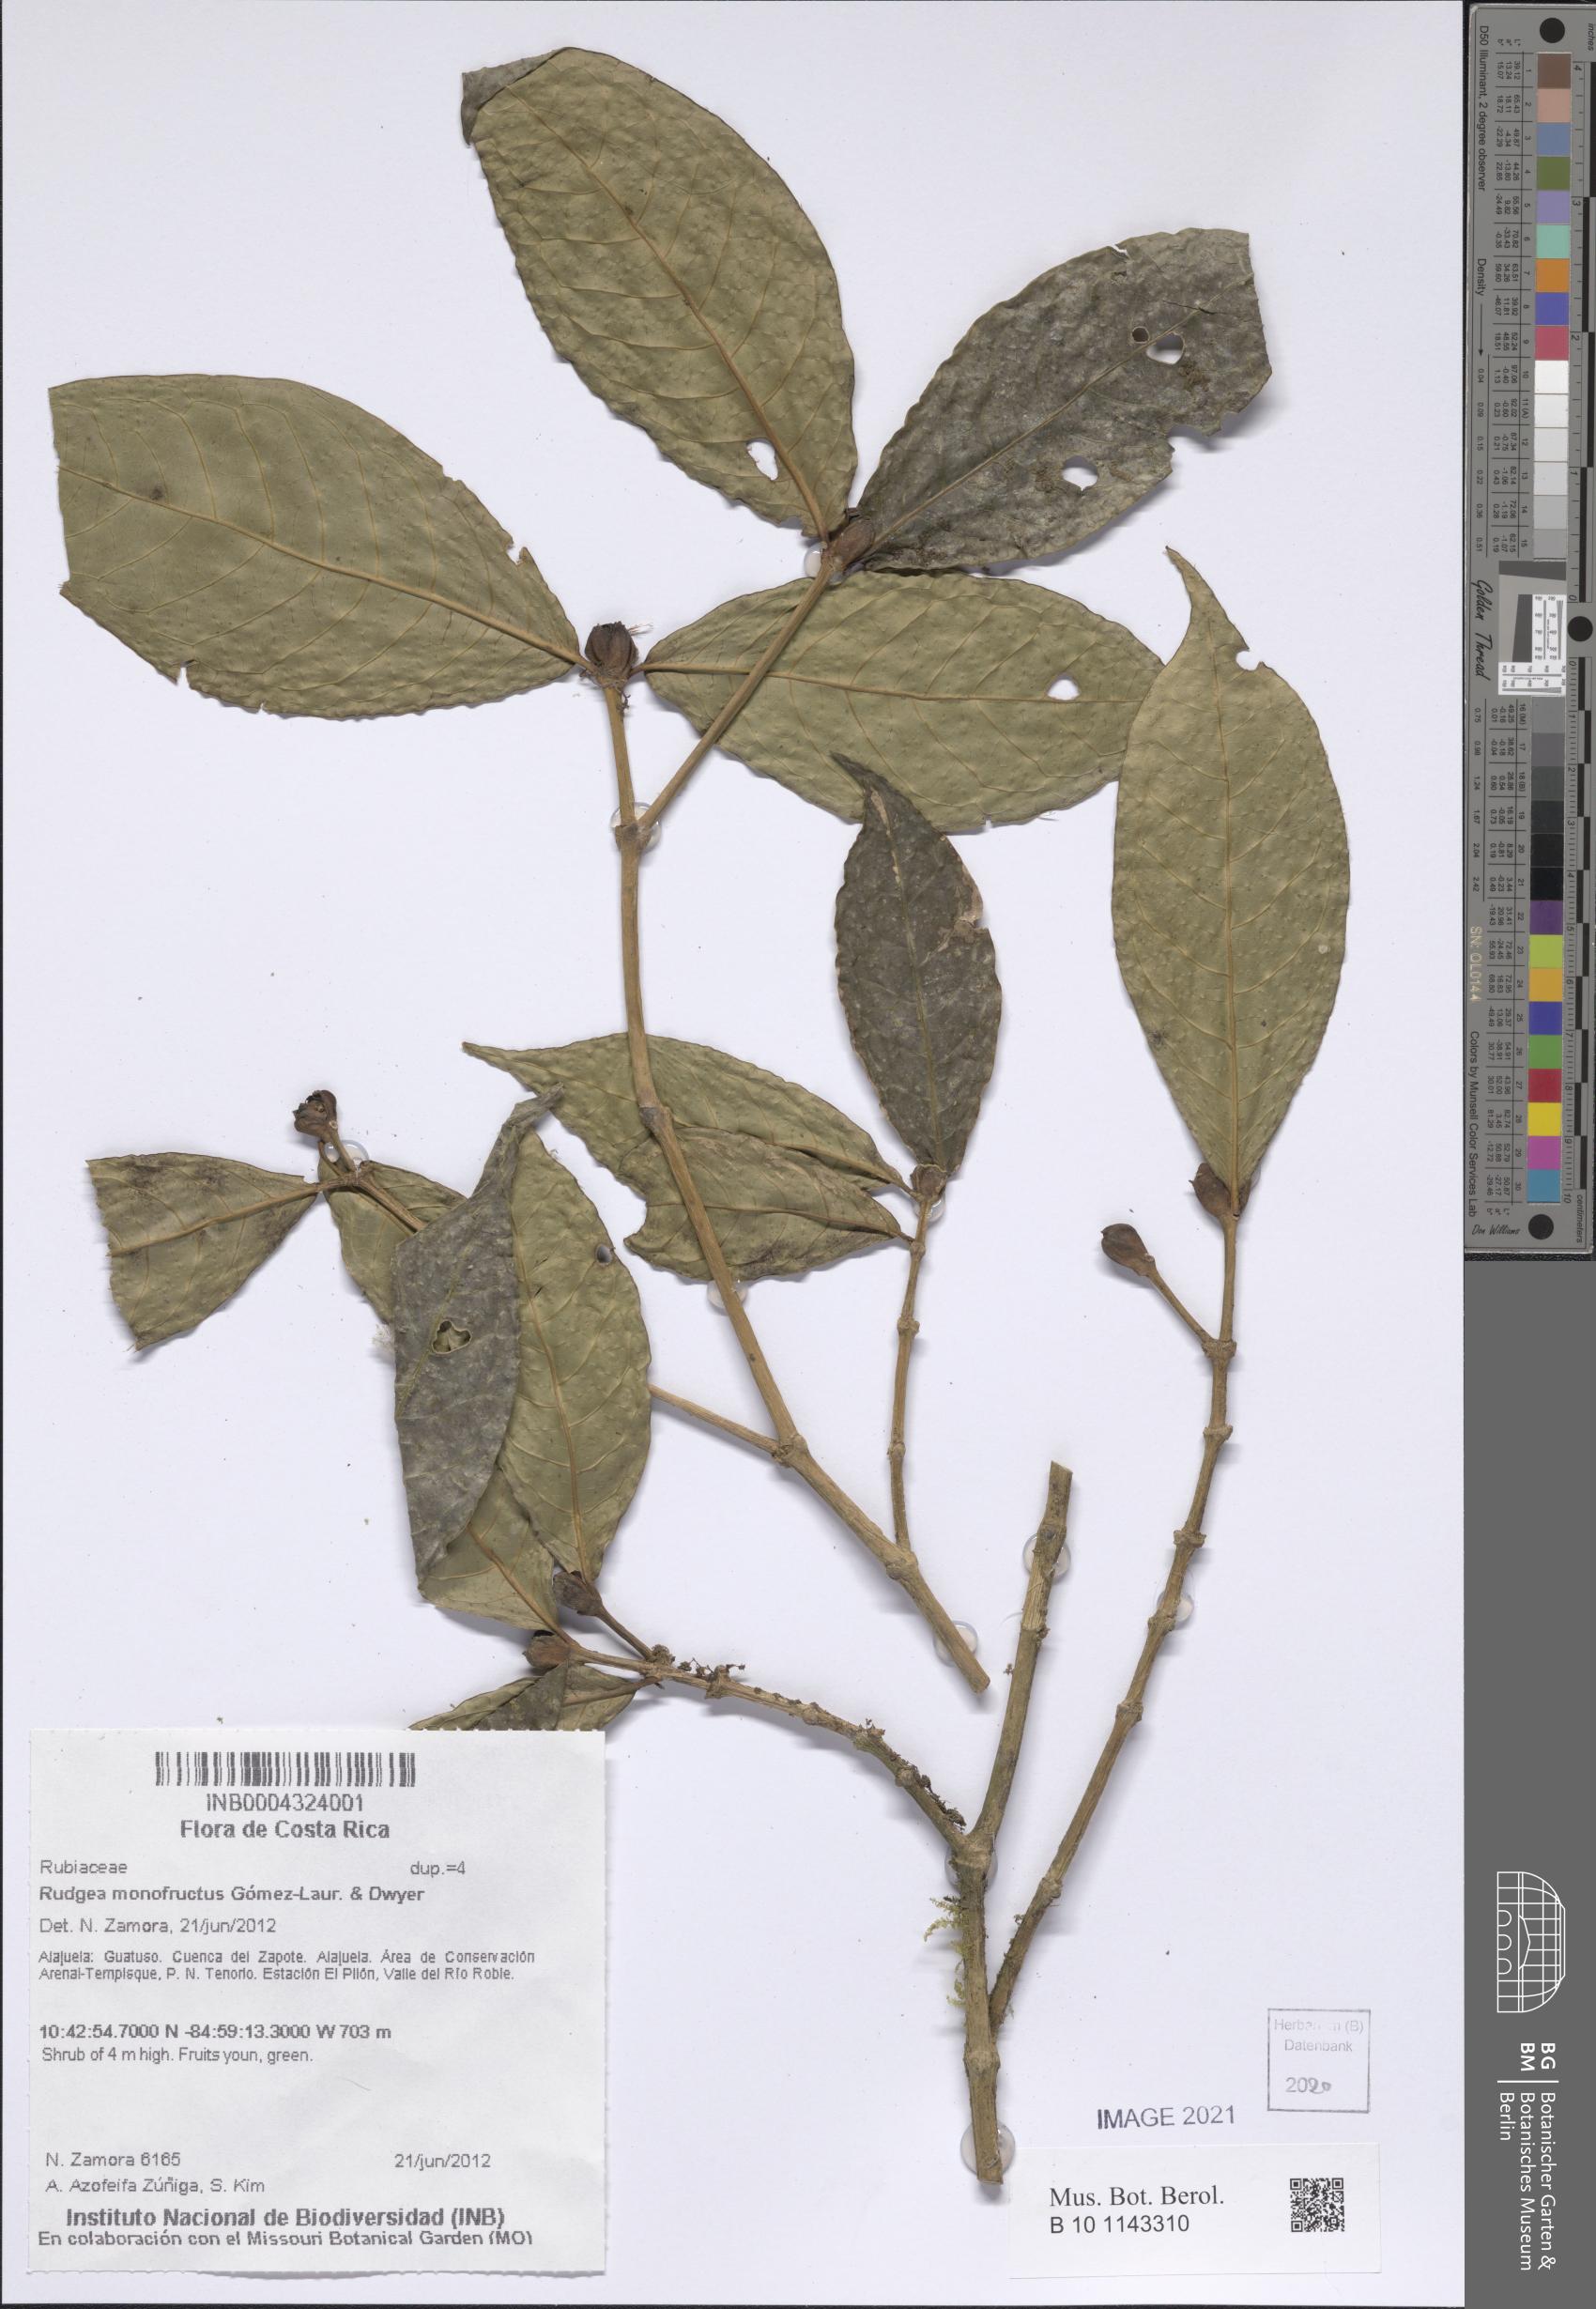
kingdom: Plantae
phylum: Tracheophyta
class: Magnoliopsida
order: Gentianales
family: Rubiaceae
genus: Rudgea
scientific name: Rudgea monofructus
